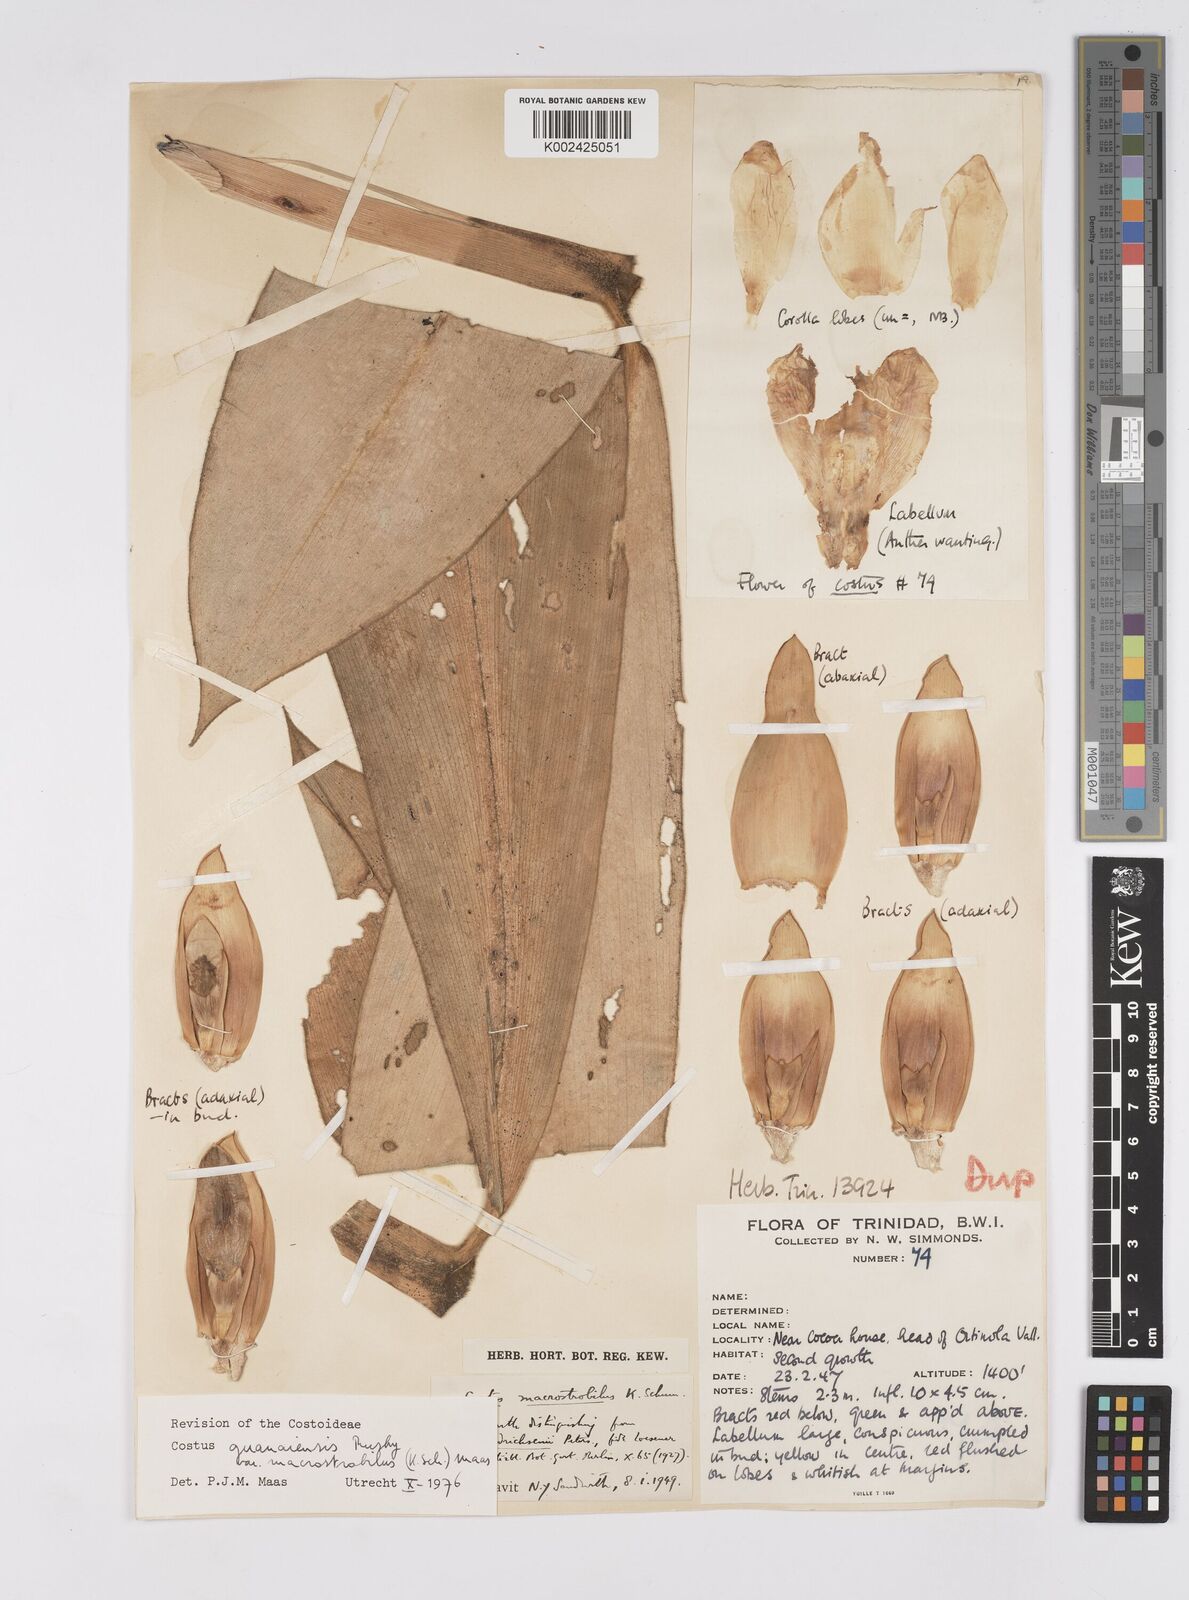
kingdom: Plantae
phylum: Tracheophyta
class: Liliopsida
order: Zingiberales
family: Costaceae
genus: Costus
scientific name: Costus guanaiensis
